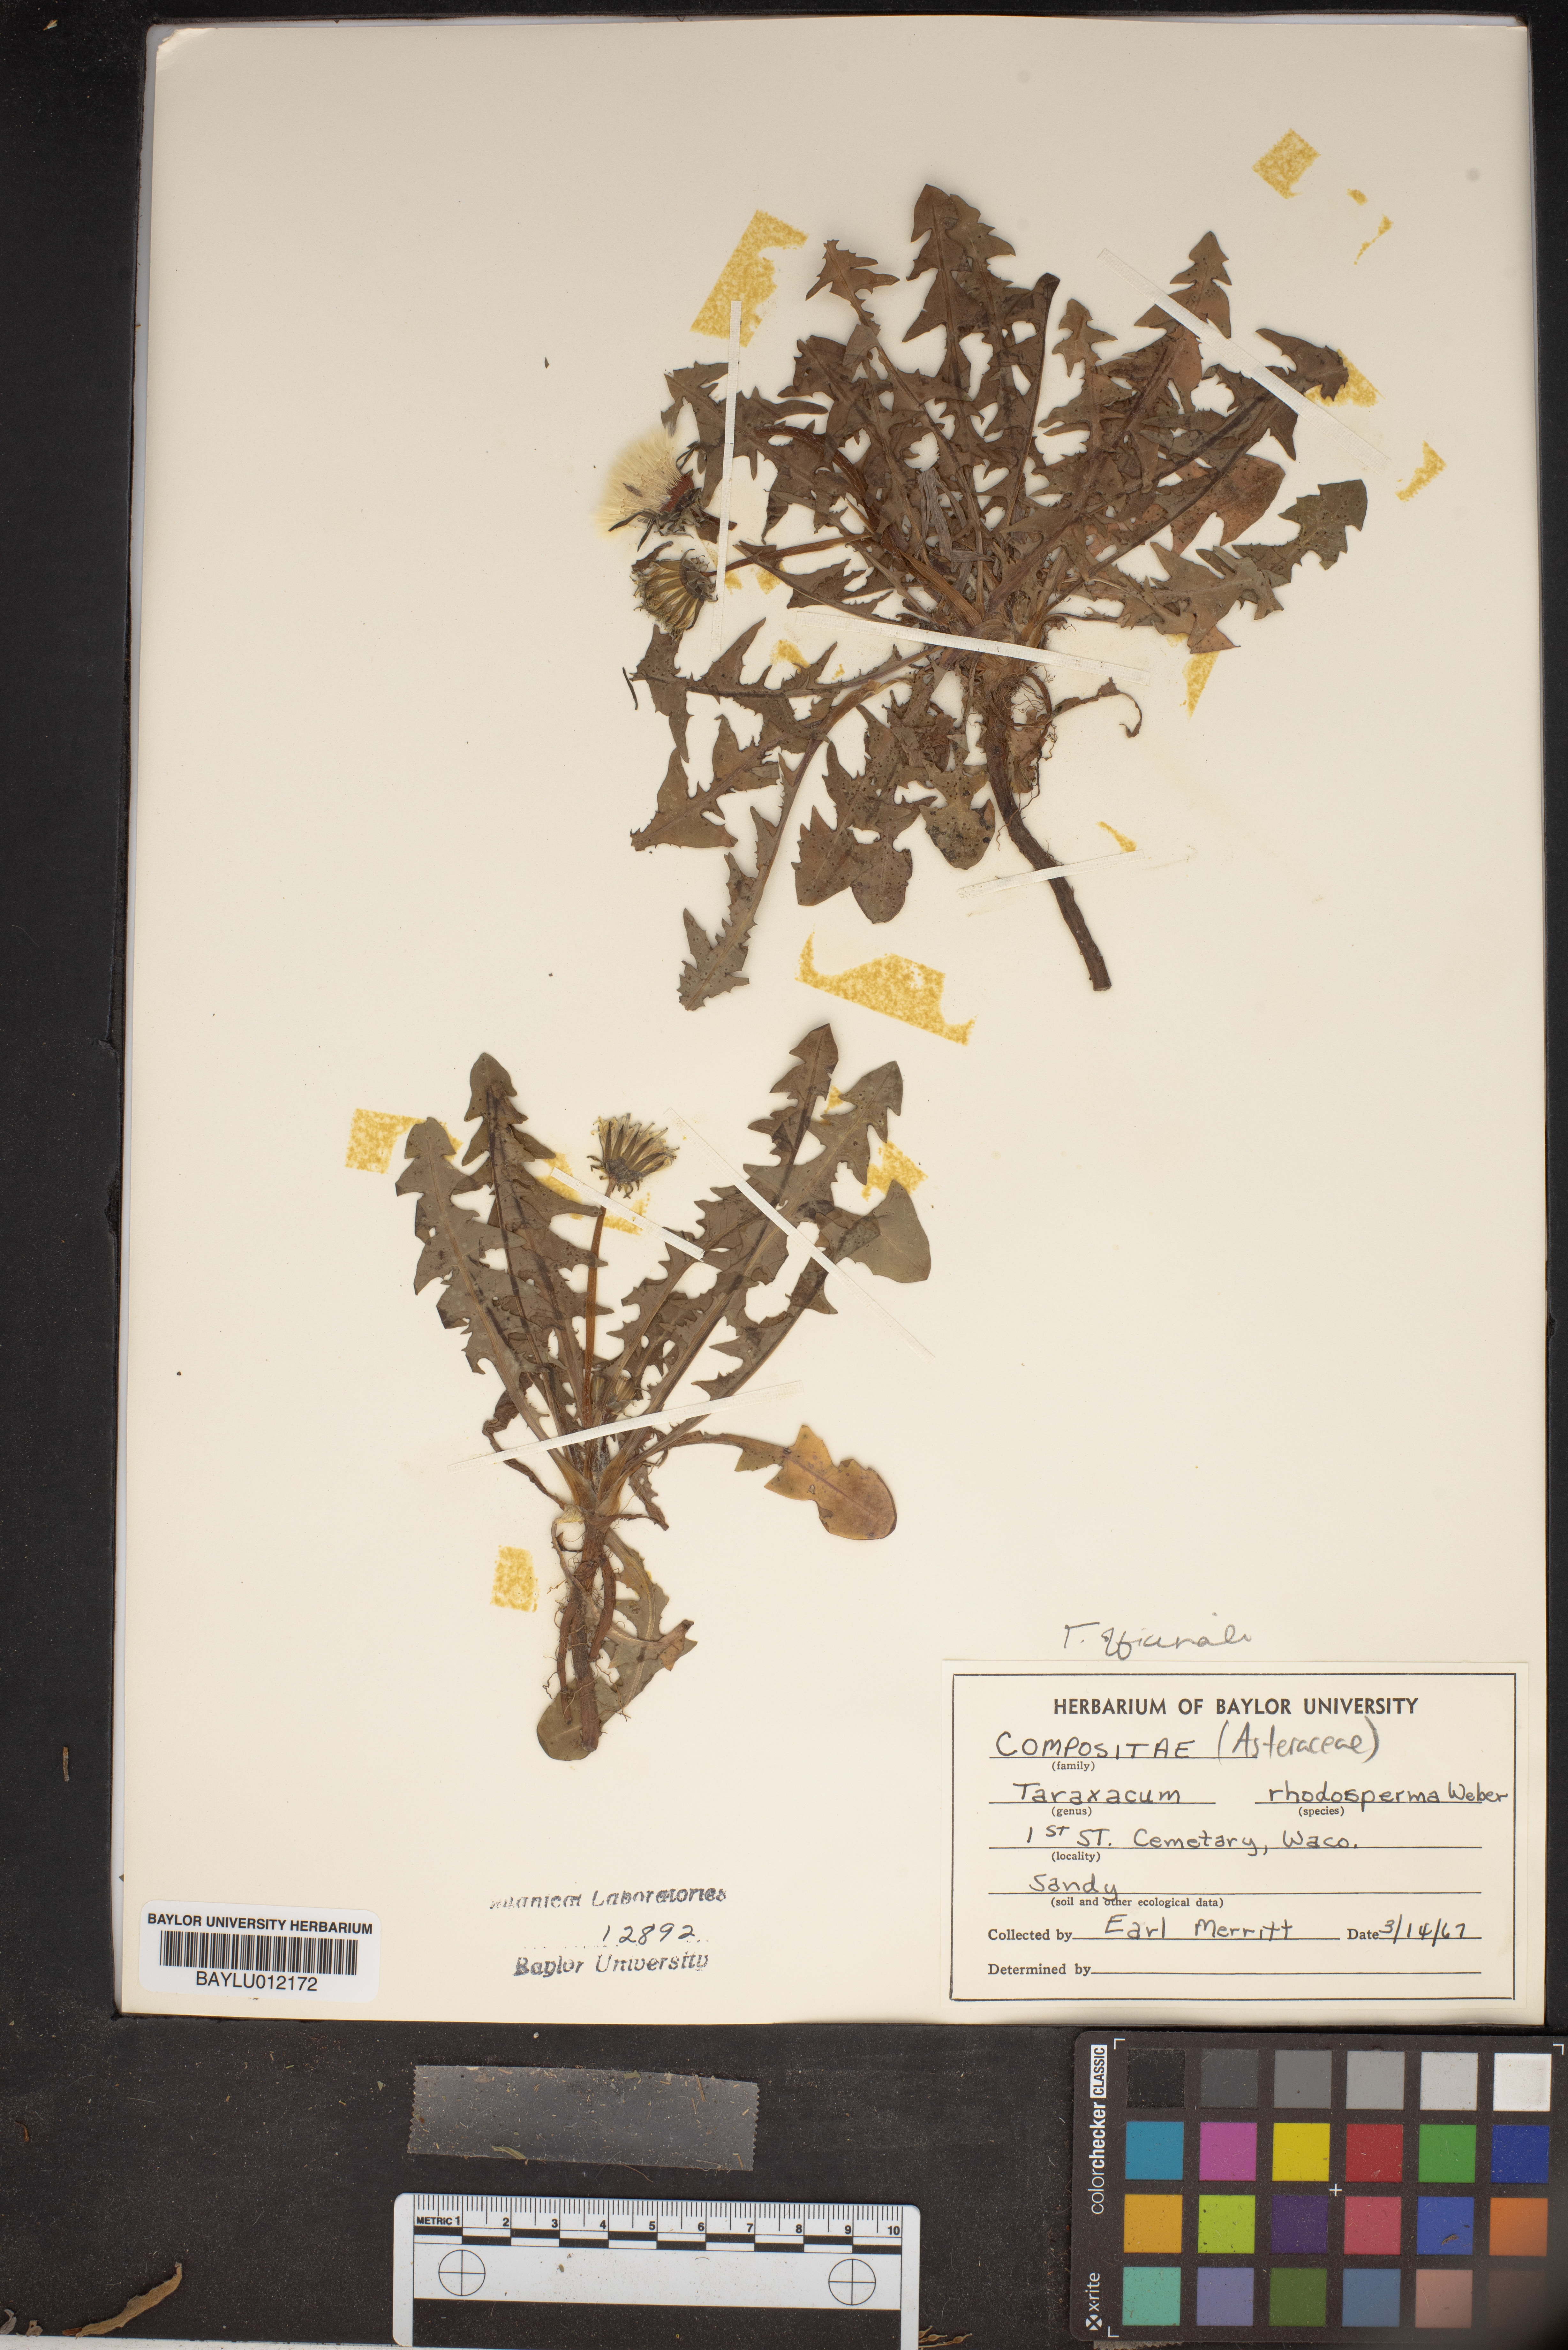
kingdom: Plantae
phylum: Tracheophyta
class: Magnoliopsida
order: Asterales
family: Asteraceae
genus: Taraxacum
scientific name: Taraxacum rhodolepis
